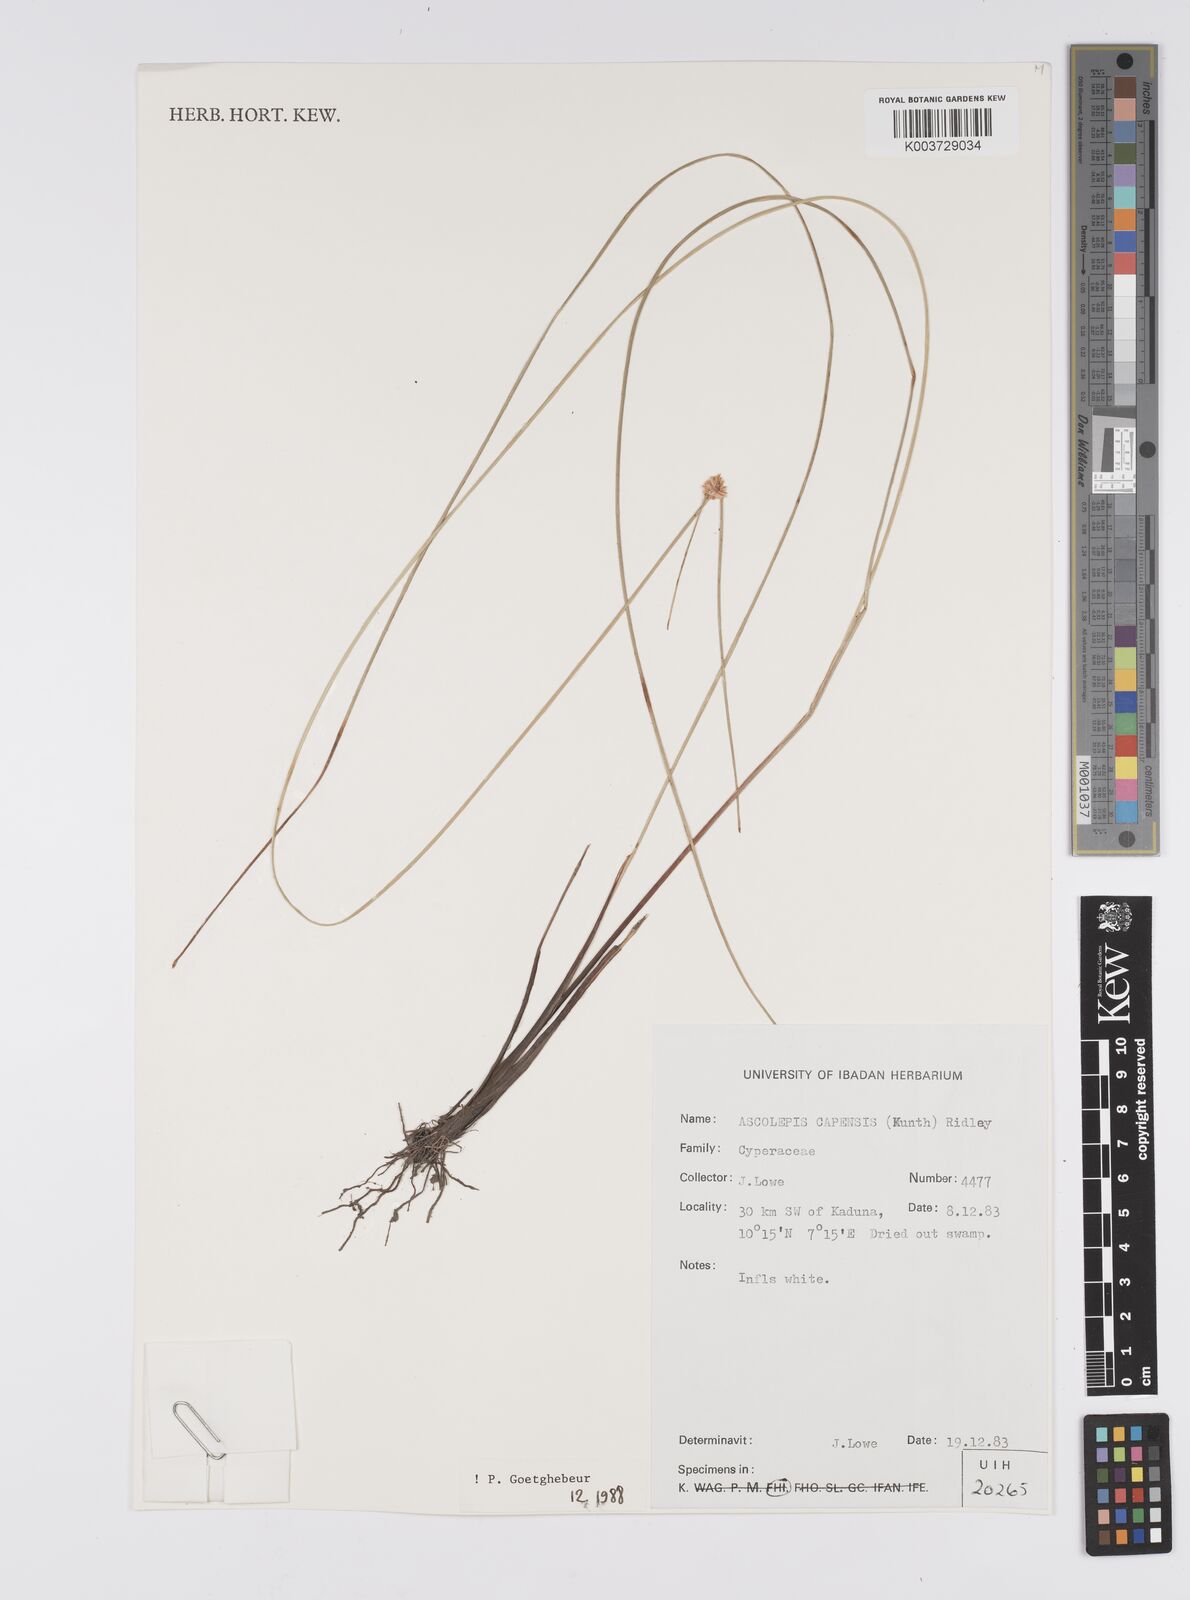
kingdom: Plantae
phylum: Tracheophyta
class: Liliopsida
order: Poales
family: Cyperaceae
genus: Ascolepis
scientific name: Ascolepis
